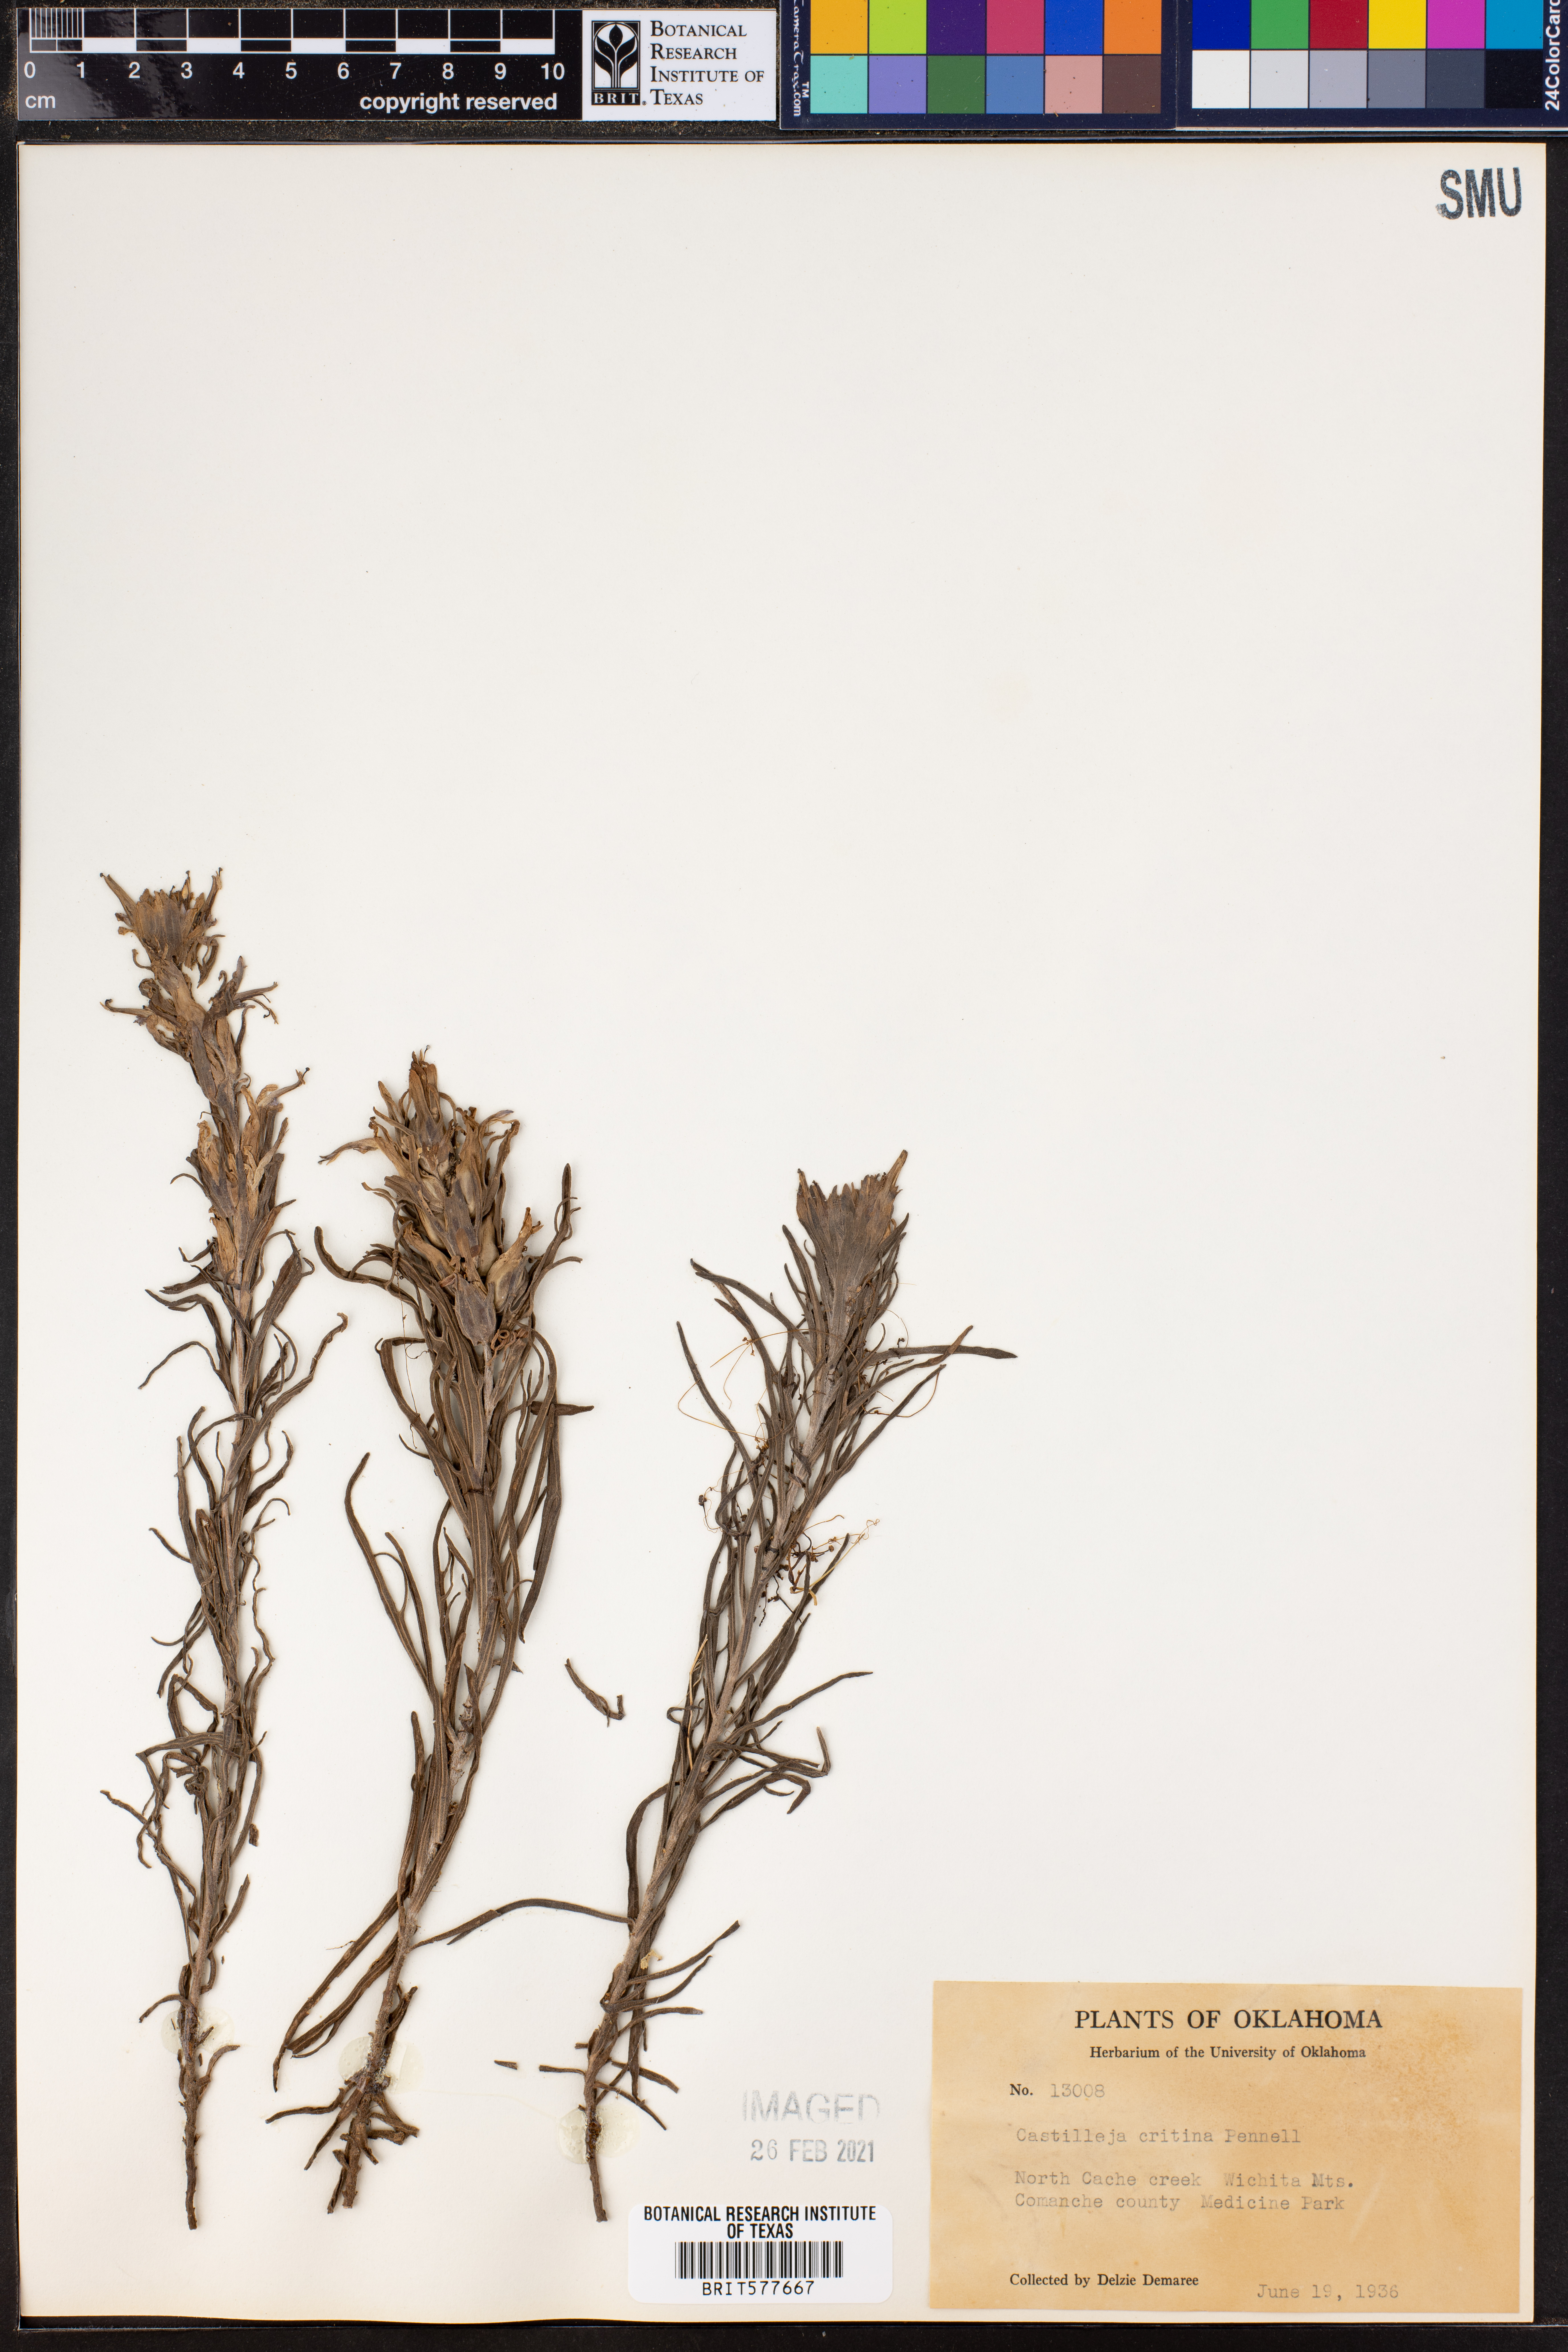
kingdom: Plantae
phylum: Tracheophyta
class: Magnoliopsida
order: Lamiales
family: Orobanchaceae
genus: Castilleja
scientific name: Castilleja citrina
